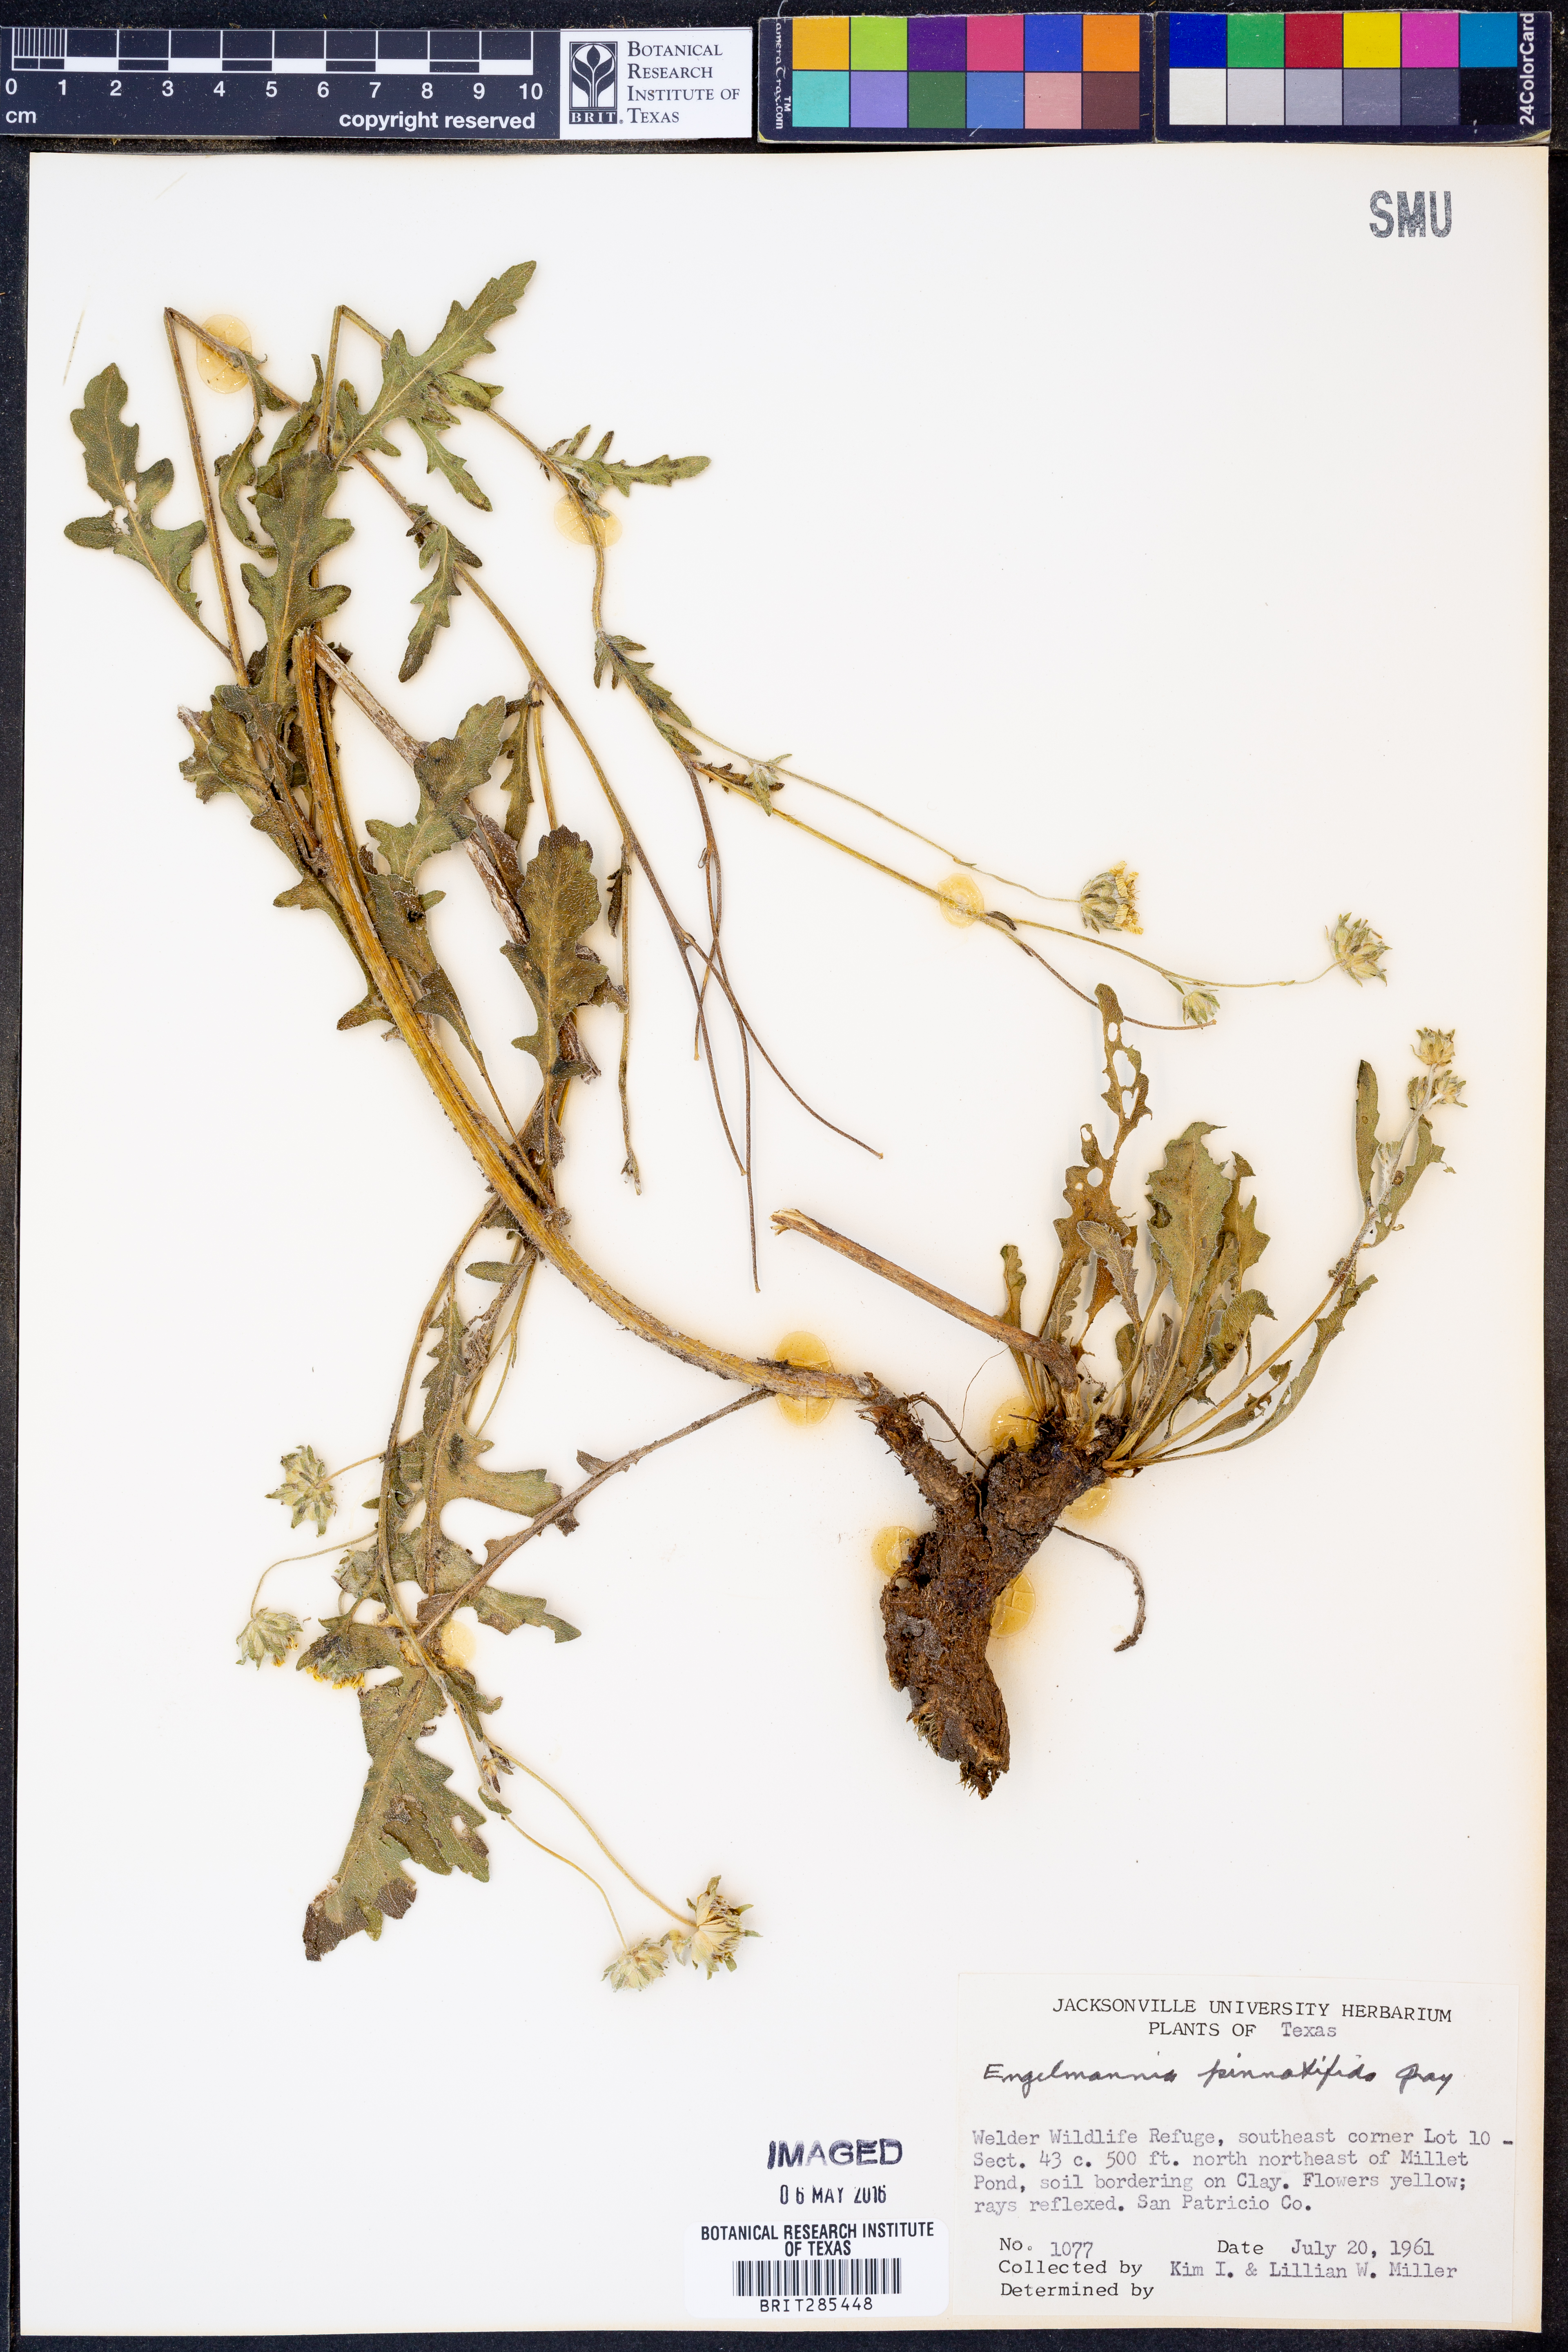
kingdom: Plantae
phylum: Tracheophyta
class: Magnoliopsida
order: Asterales
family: Asteraceae
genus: Engelmannia
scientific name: Engelmannia peristenia
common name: Engelmann's daisy
